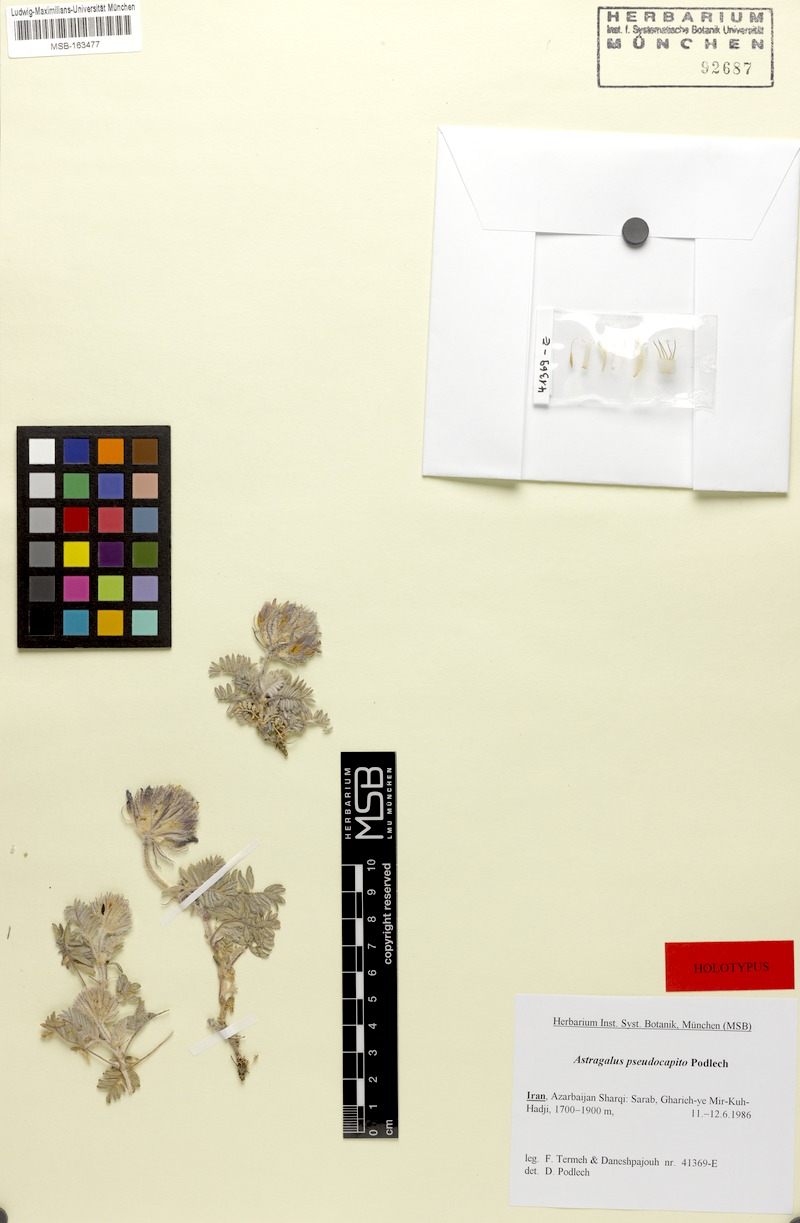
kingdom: Plantae
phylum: Tracheophyta
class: Magnoliopsida
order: Fabales
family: Fabaceae
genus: Astragalus
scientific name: Astragalus pseudocapito
